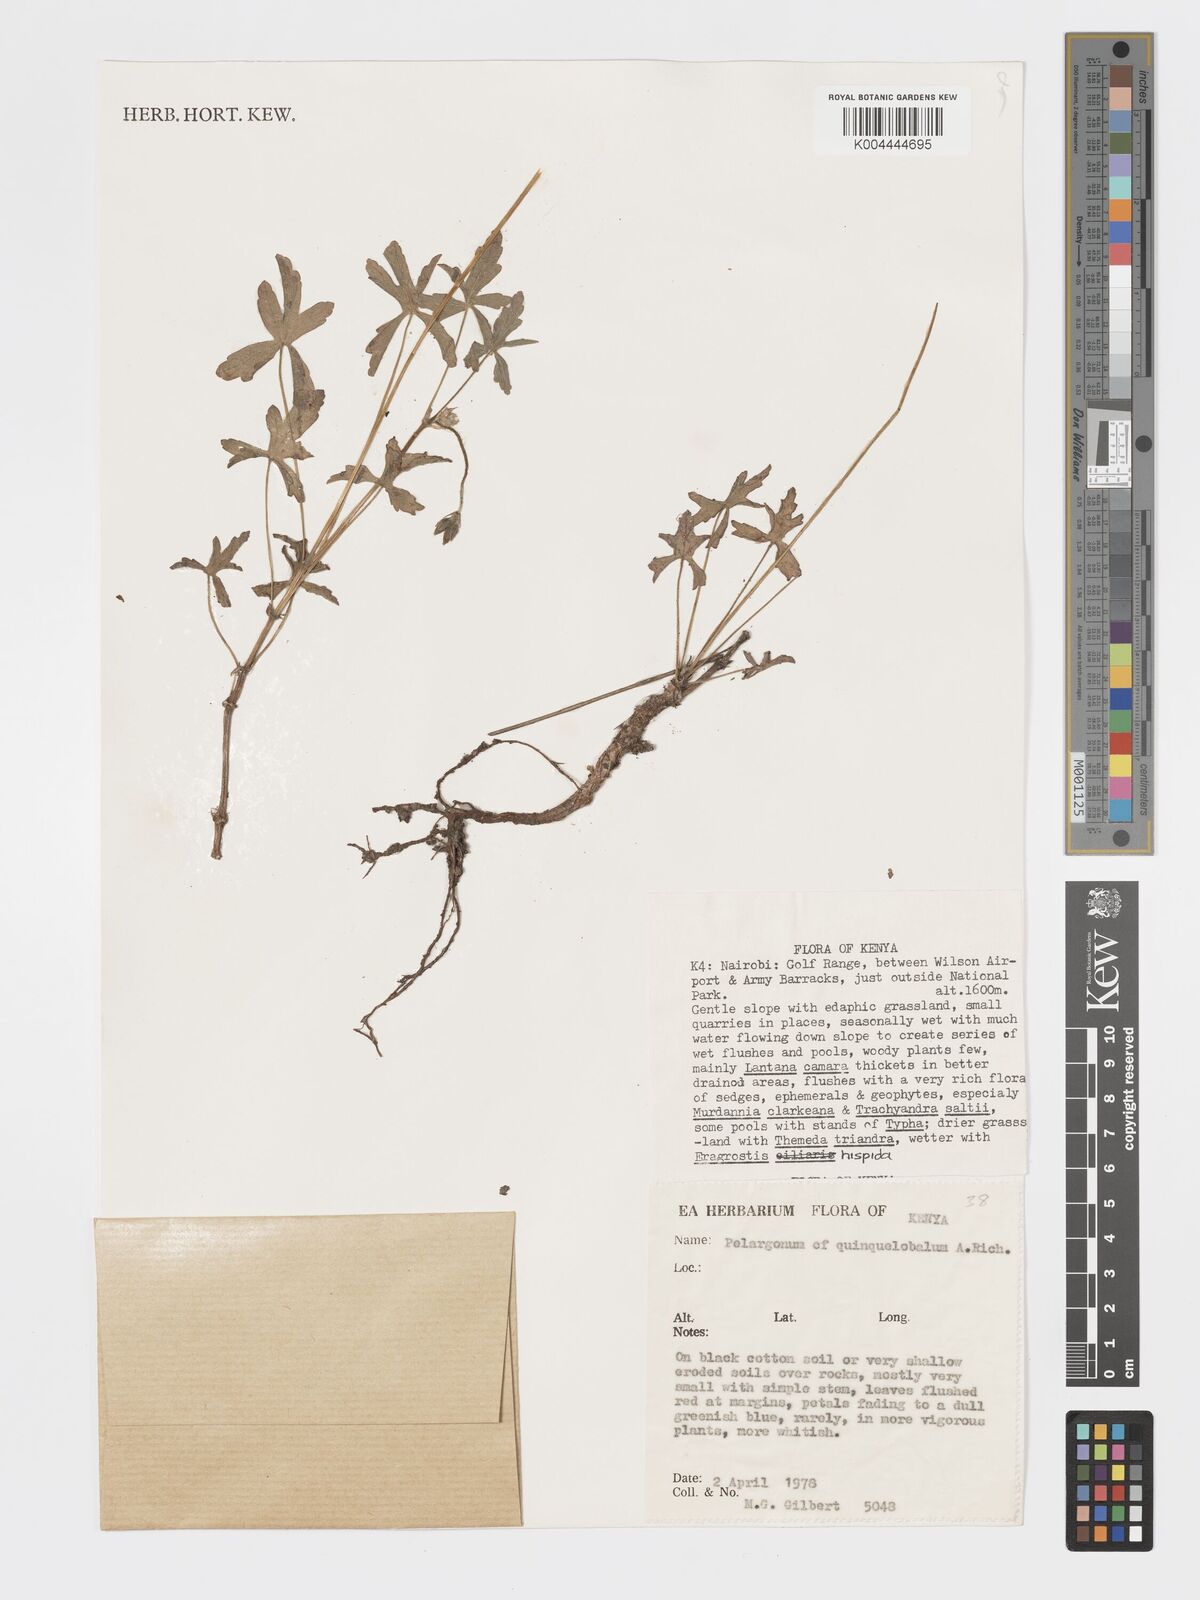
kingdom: Plantae
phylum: Tracheophyta
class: Magnoliopsida
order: Geraniales
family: Geraniaceae
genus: Pelargonium
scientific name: Pelargonium quinquelobatum
